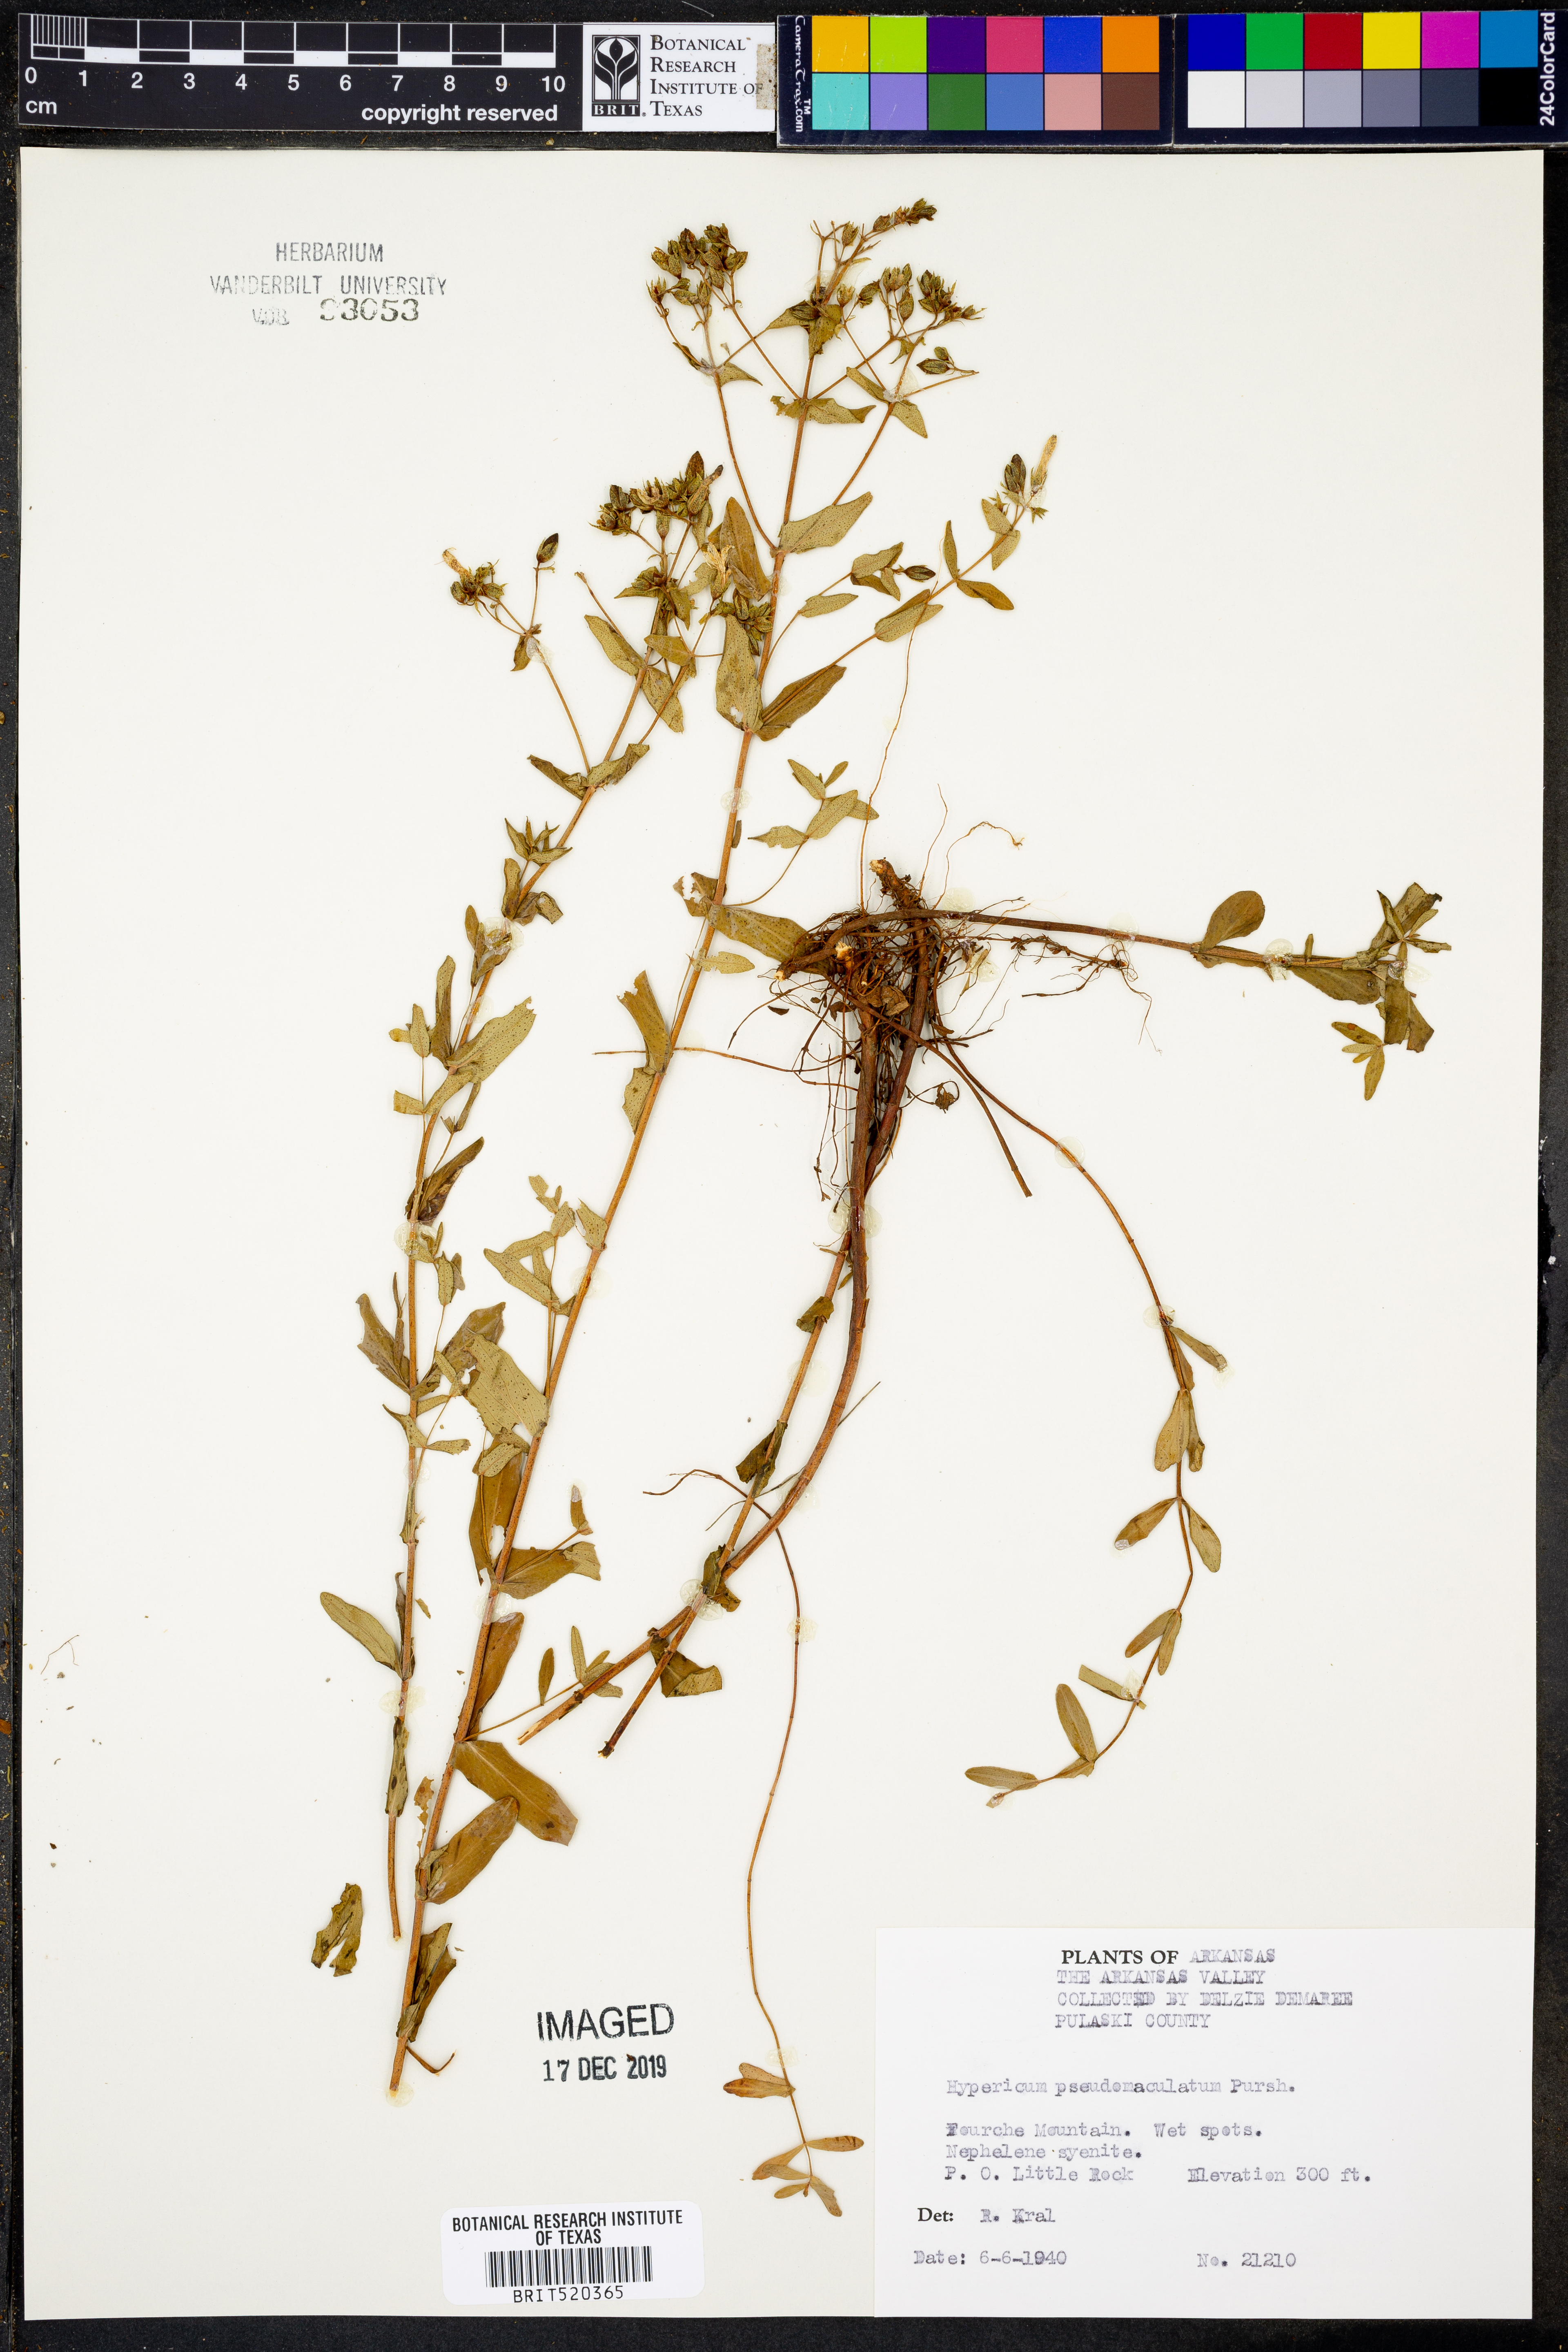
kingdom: Plantae
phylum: Tracheophyta
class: Magnoliopsida
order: Malpighiales
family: Hypericaceae
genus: Hypericum
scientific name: Hypericum pseudomaculatum
